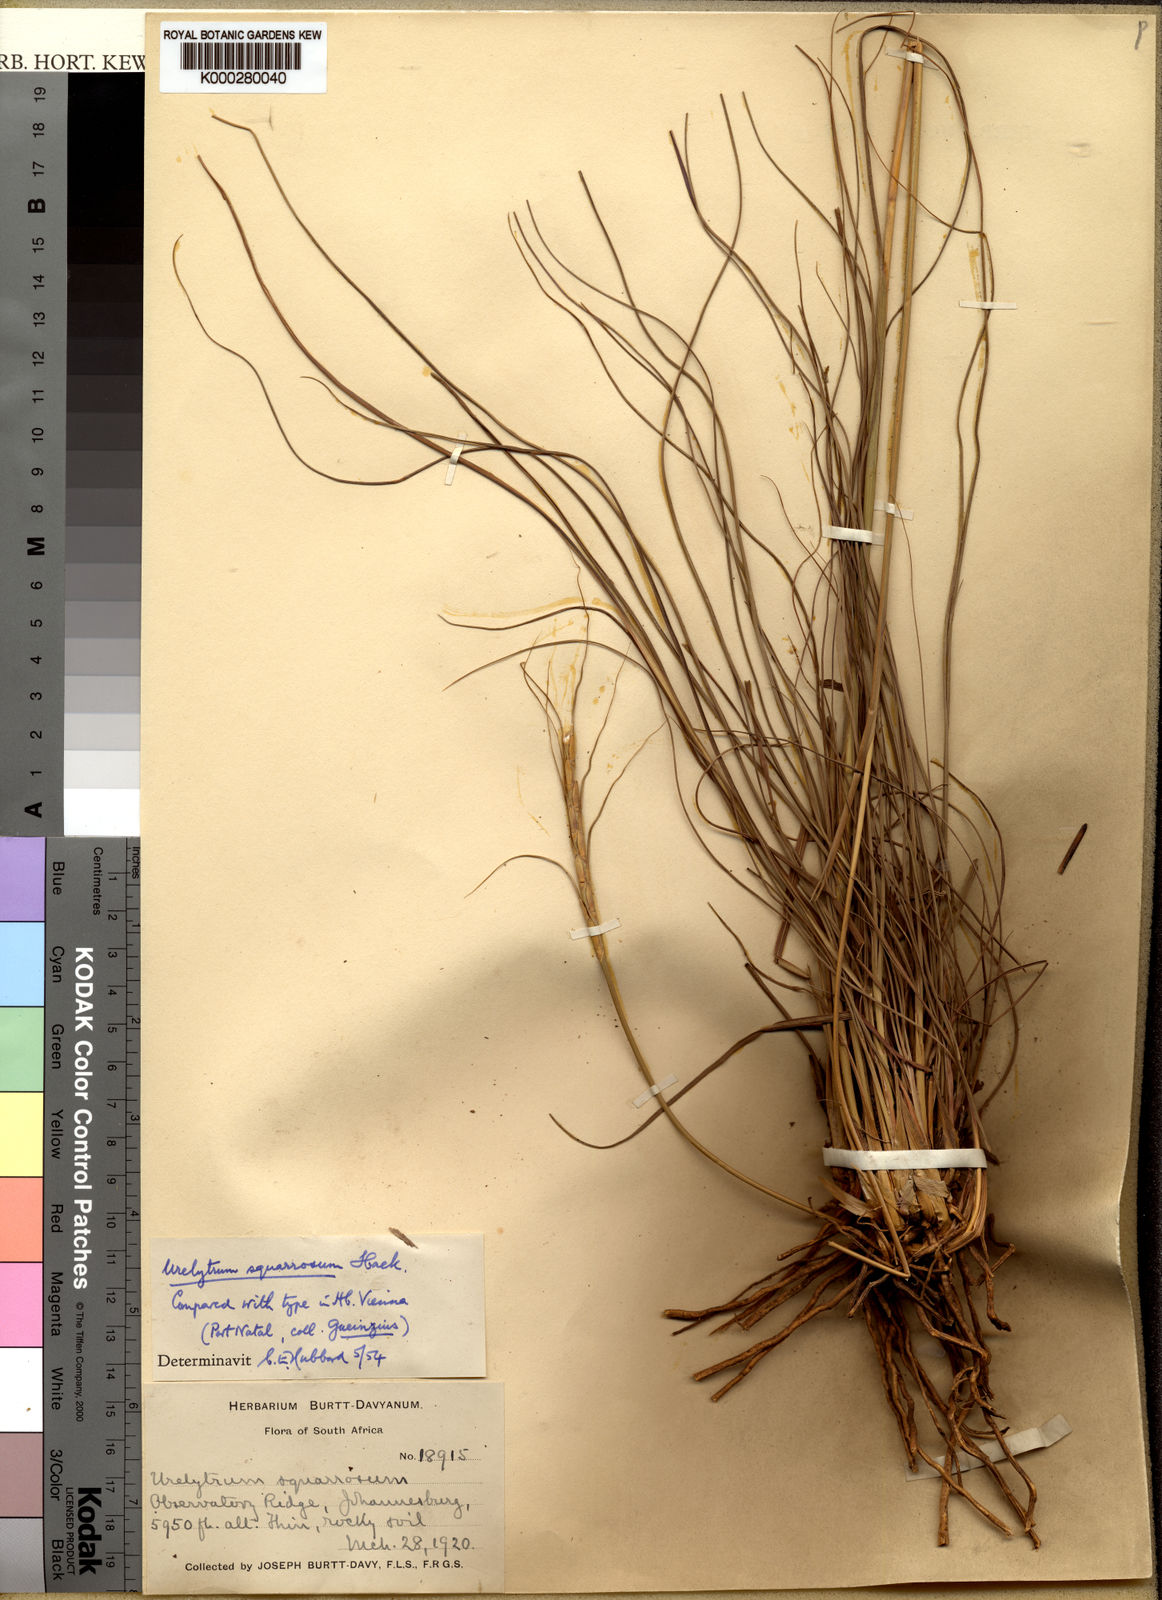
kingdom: Plantae
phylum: Tracheophyta
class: Liliopsida
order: Poales
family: Poaceae
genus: Urelytrum
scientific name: Urelytrum agropyroides
